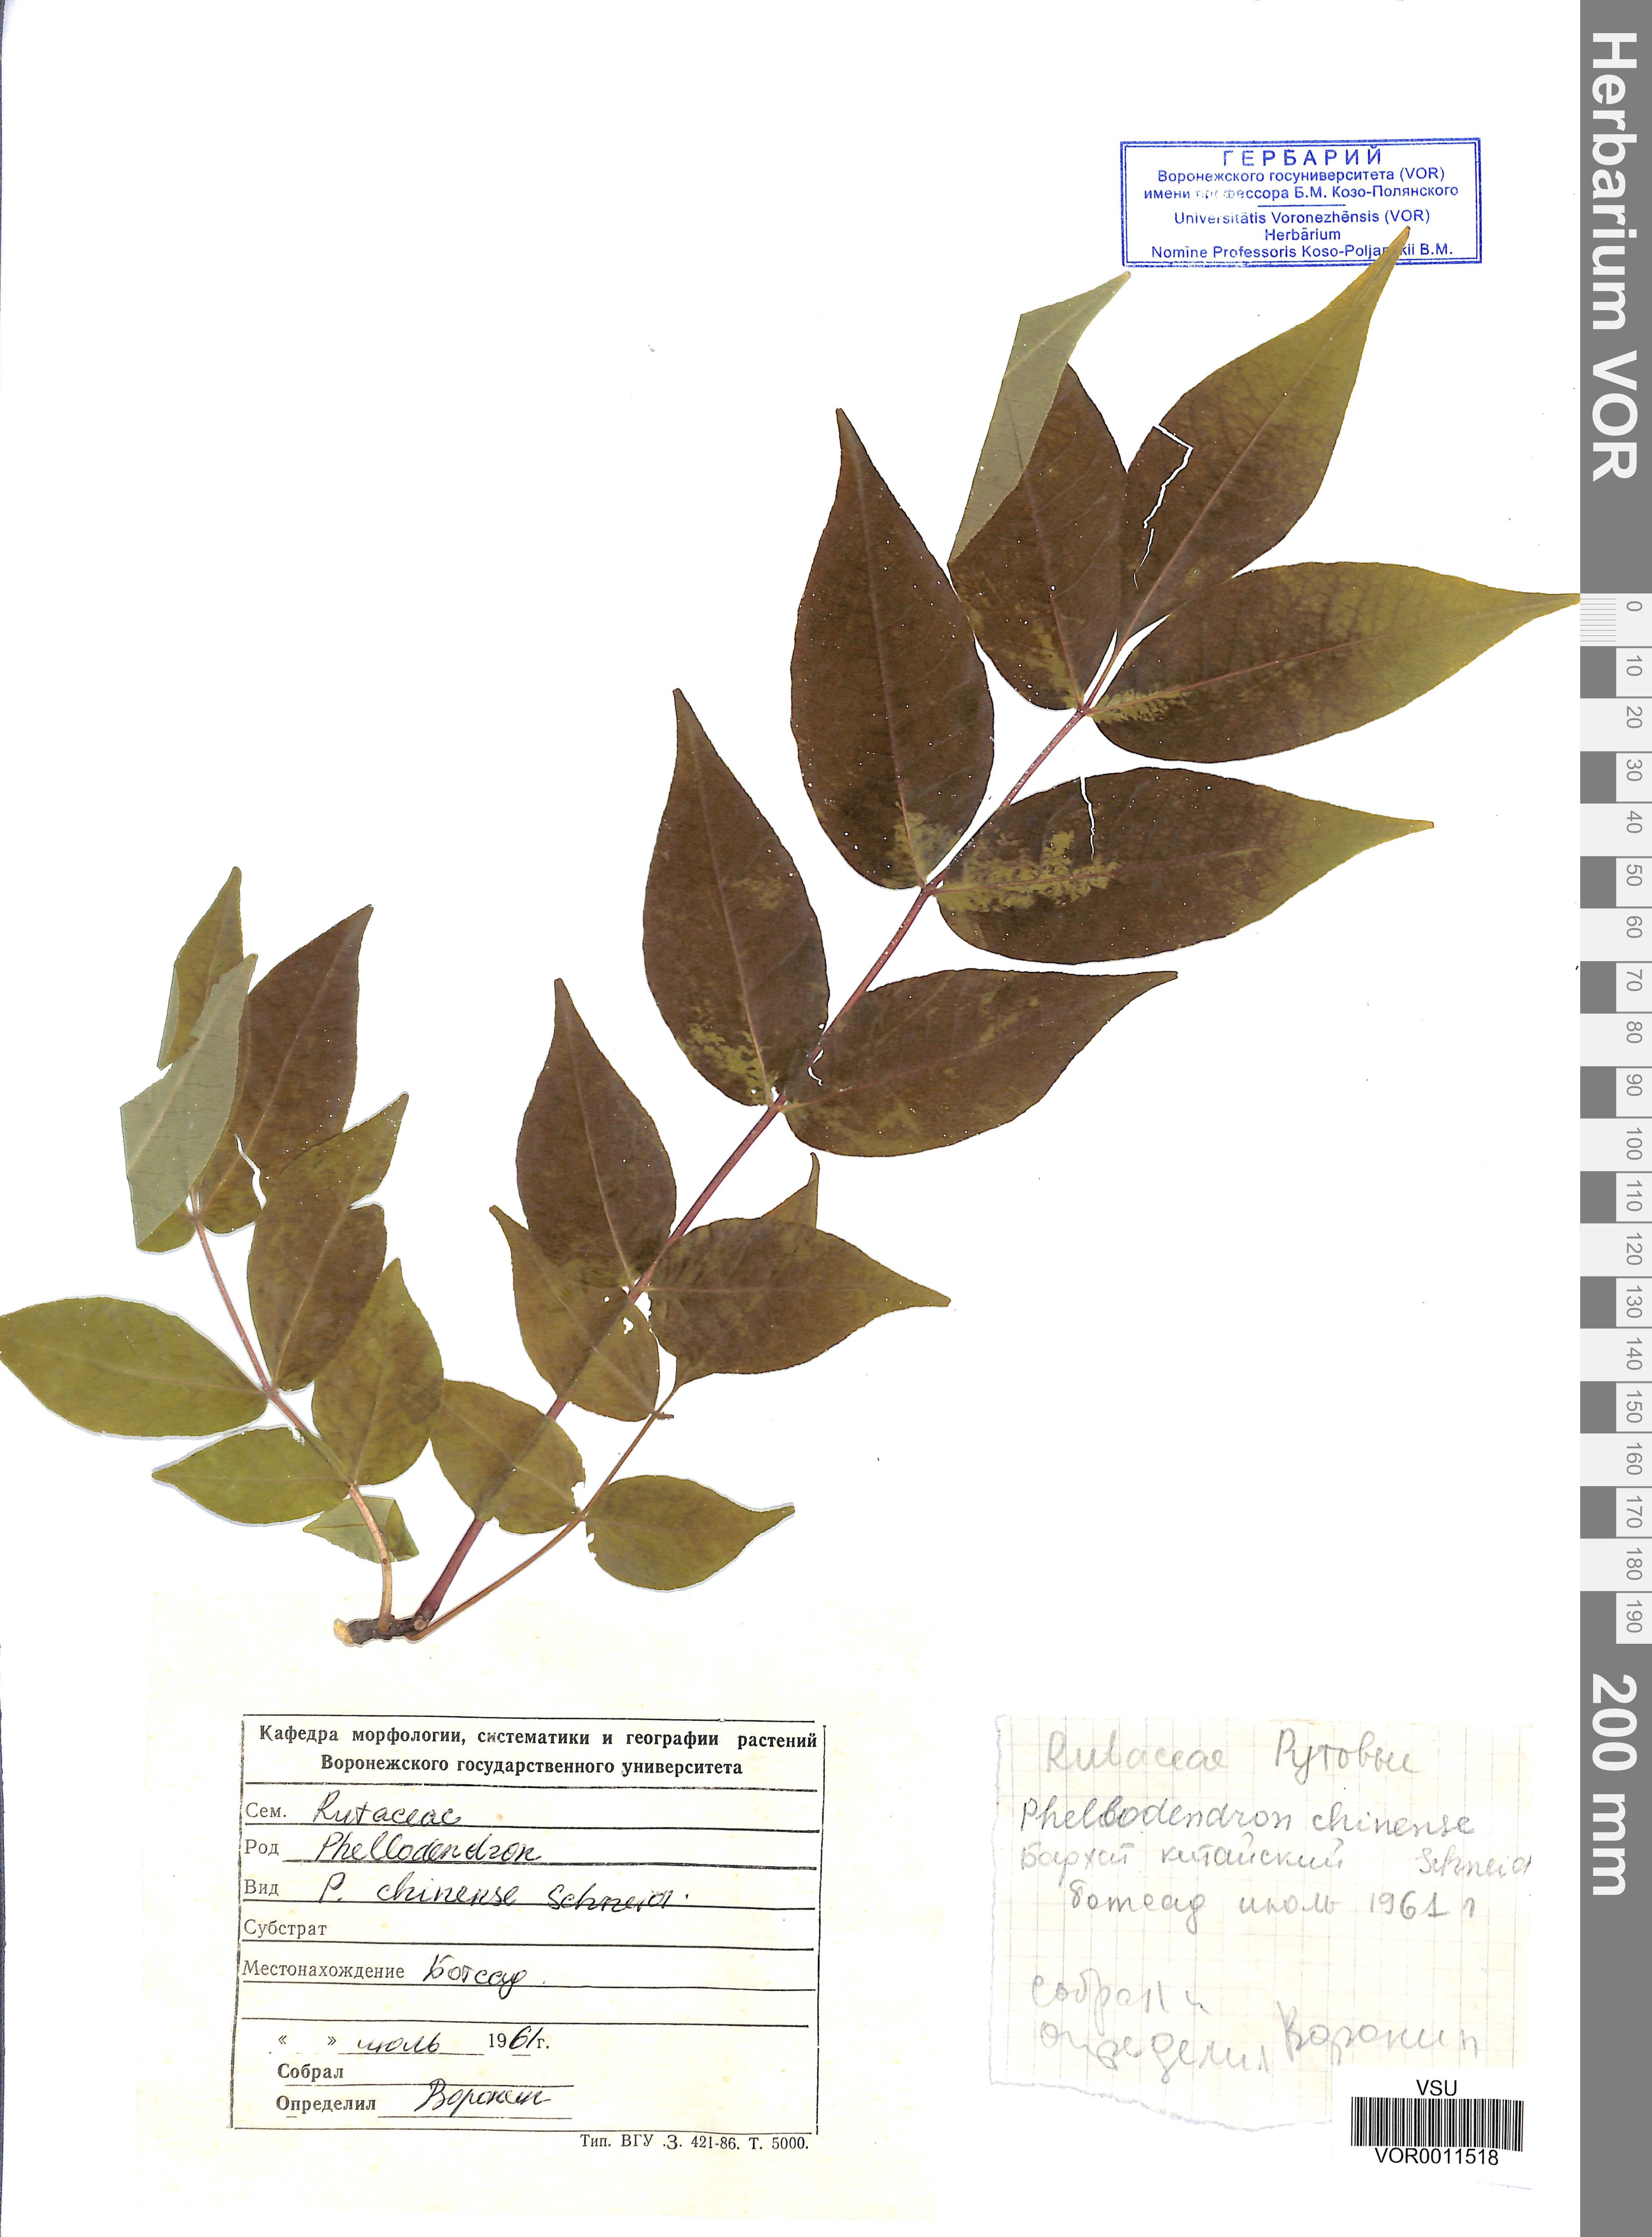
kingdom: Plantae
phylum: Tracheophyta
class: Magnoliopsida
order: Sapindales
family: Rutaceae
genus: Phellodendron
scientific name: Phellodendron chinense
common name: Phellodendron
